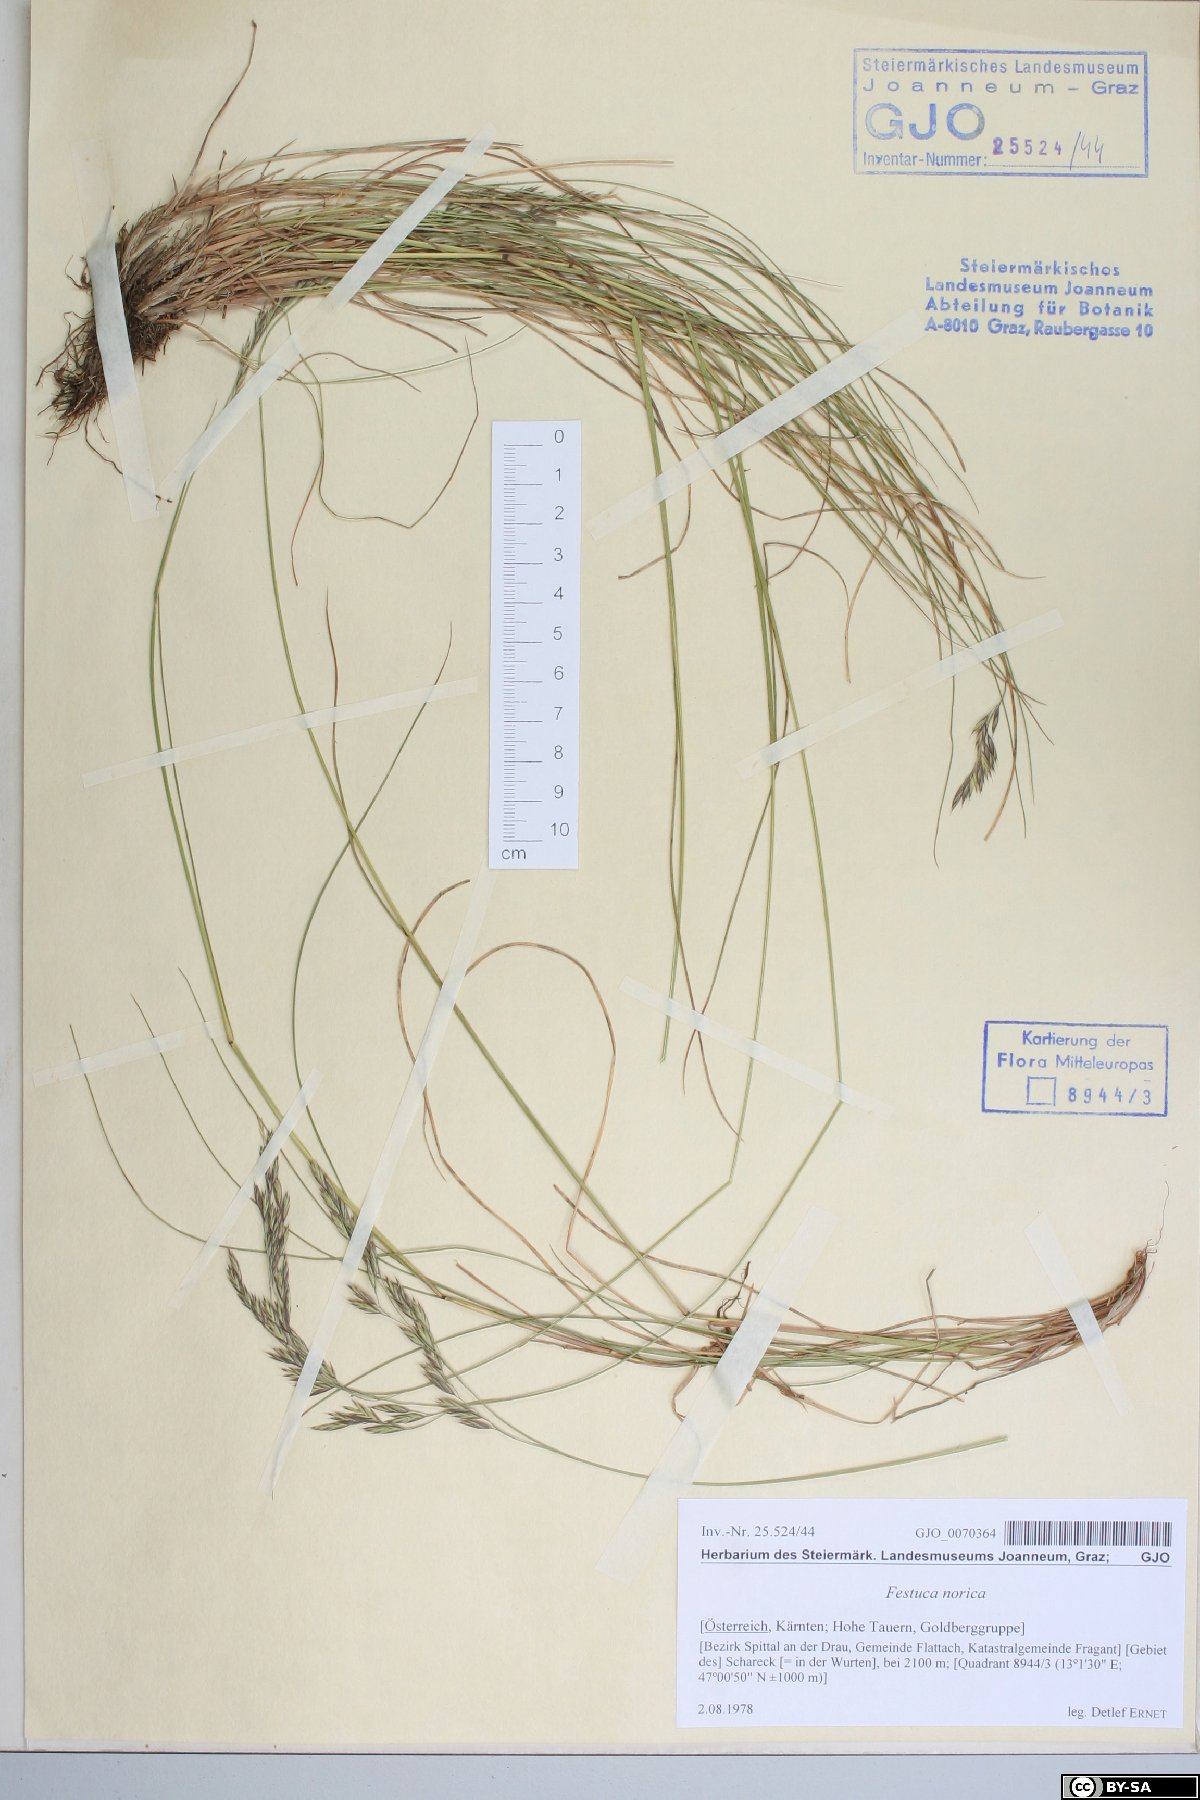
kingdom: Plantae
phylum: Tracheophyta
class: Liliopsida
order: Poales
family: Poaceae
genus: Festuca
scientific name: Festuca norica
